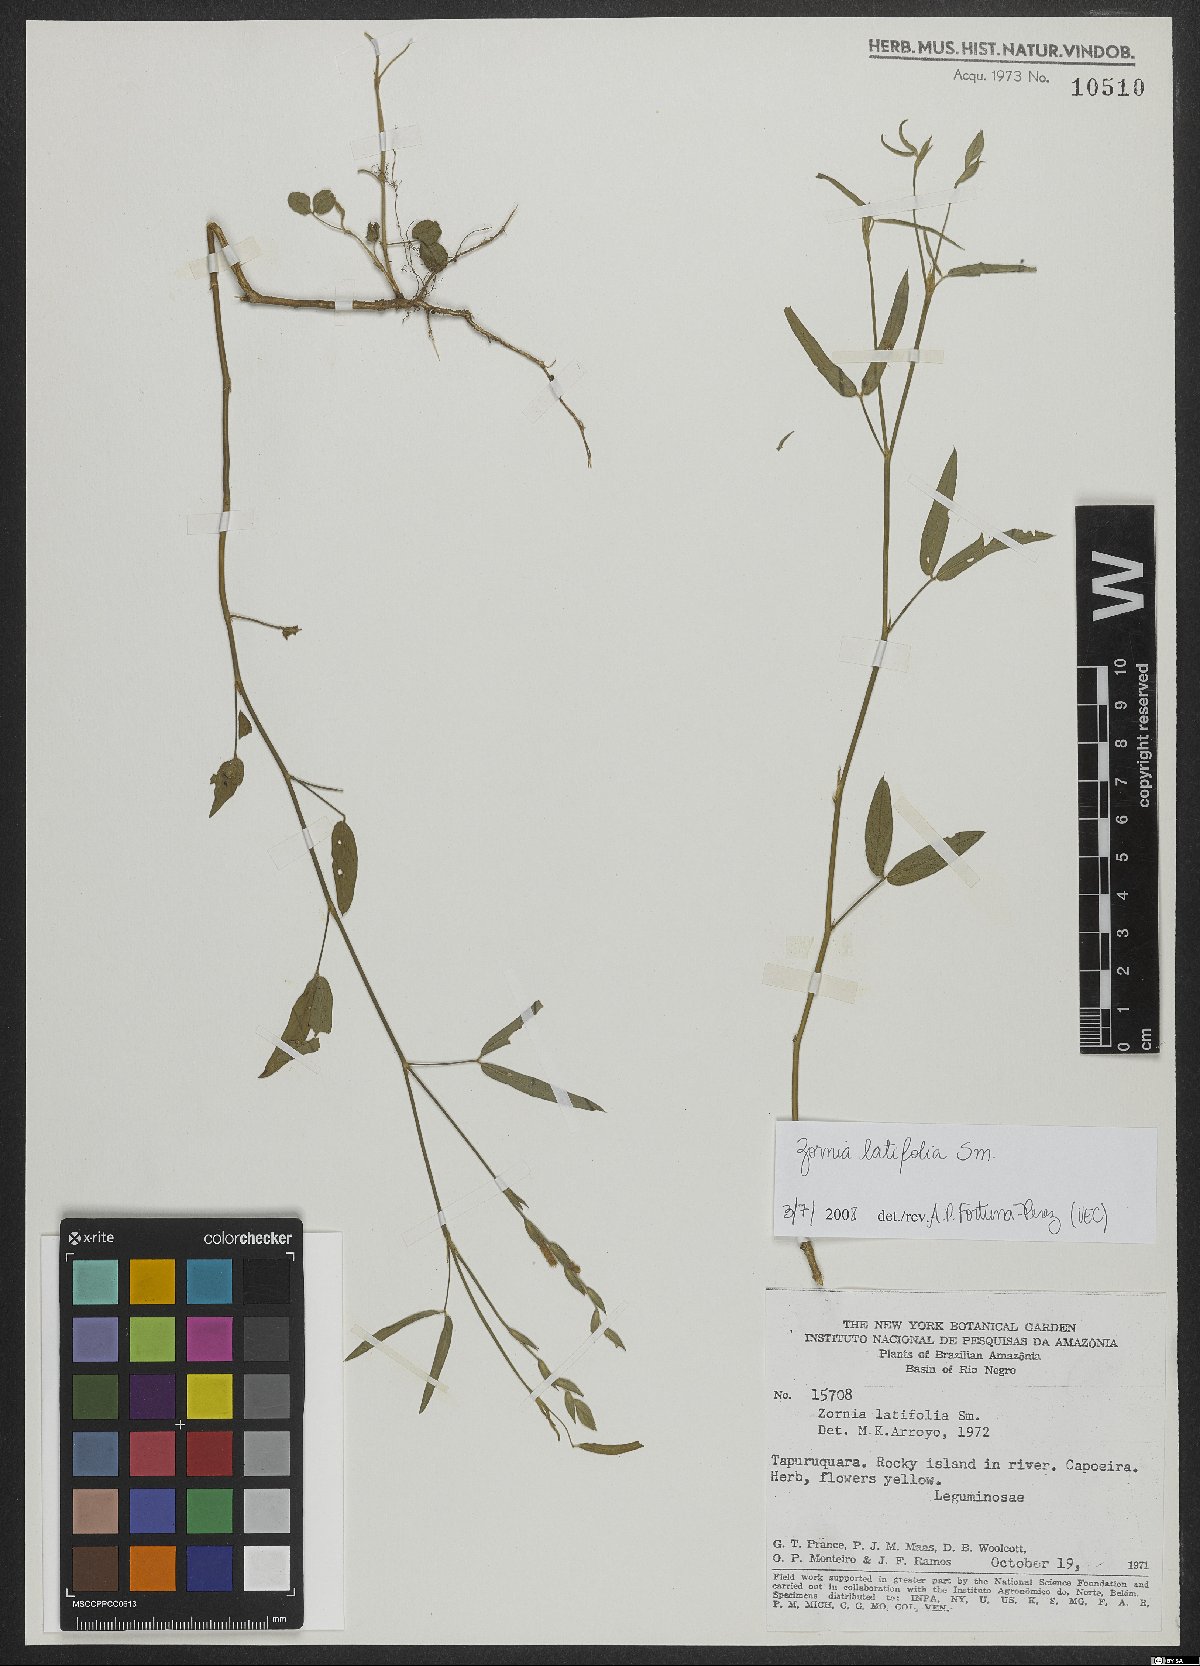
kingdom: Plantae
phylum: Tracheophyta
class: Magnoliopsida
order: Fabales
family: Fabaceae
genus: Zornia
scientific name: Zornia sericea
